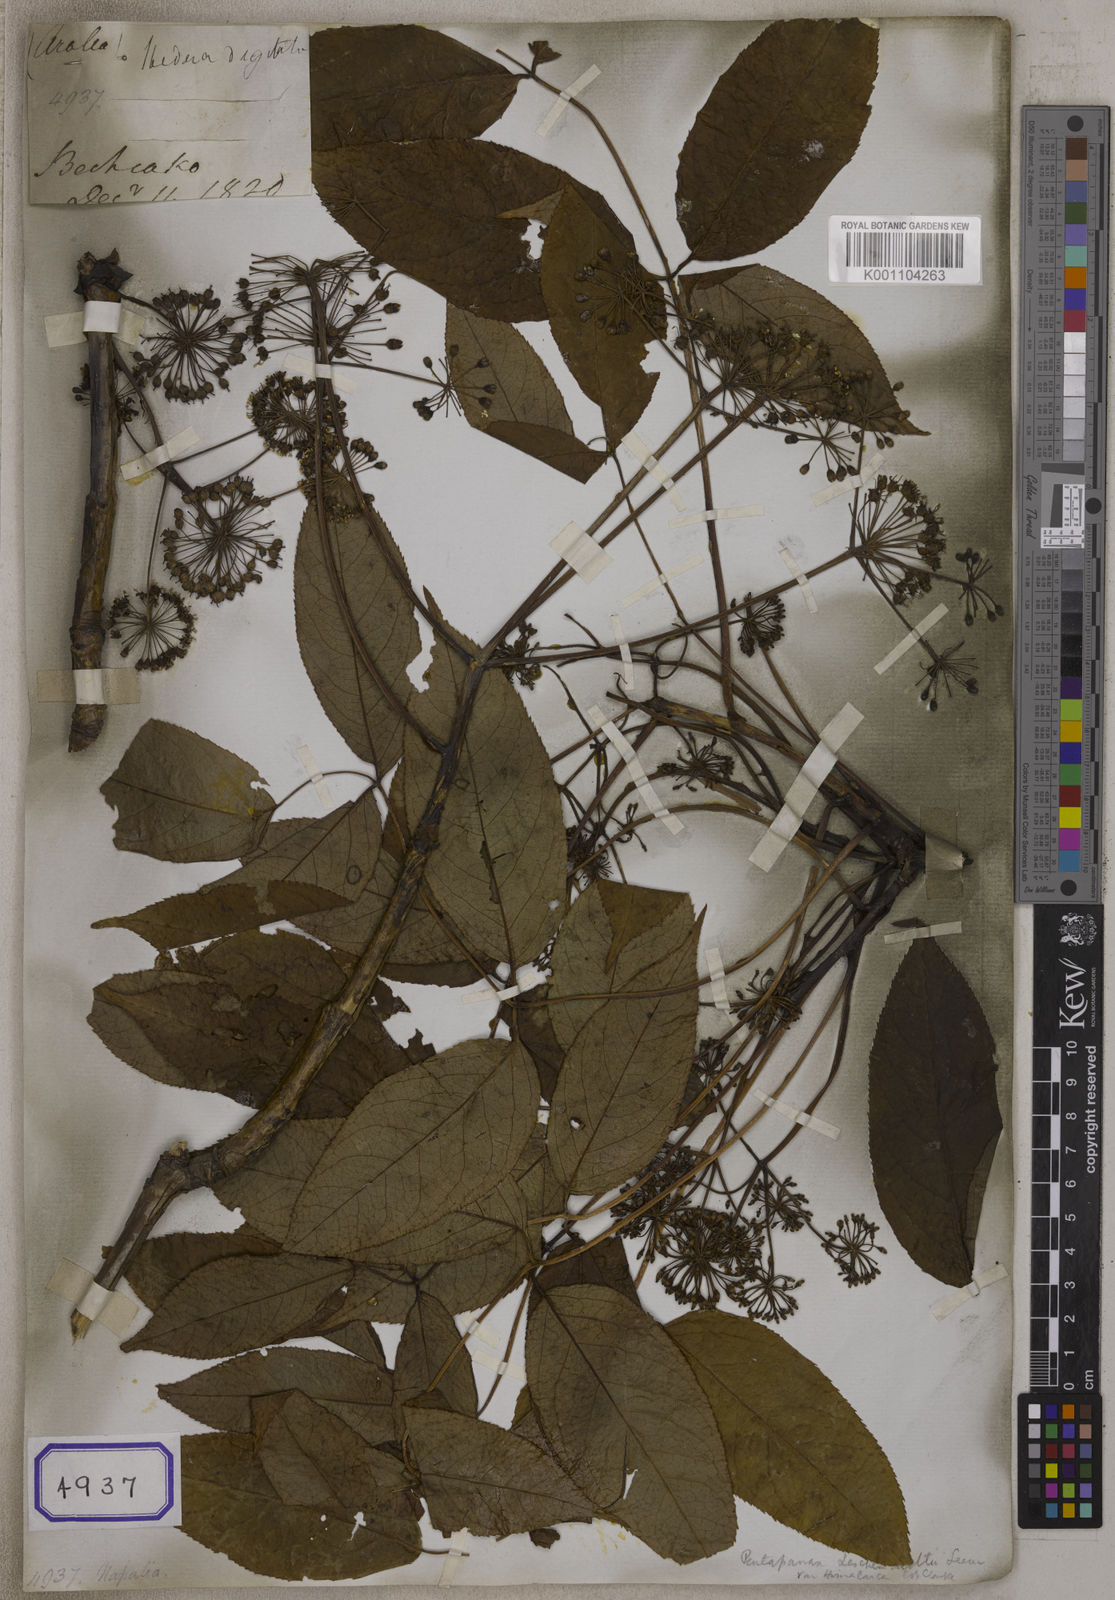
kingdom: Plantae
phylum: Tracheophyta
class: Magnoliopsida
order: Apiales
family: Araliaceae
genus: Panax
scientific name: Panax
